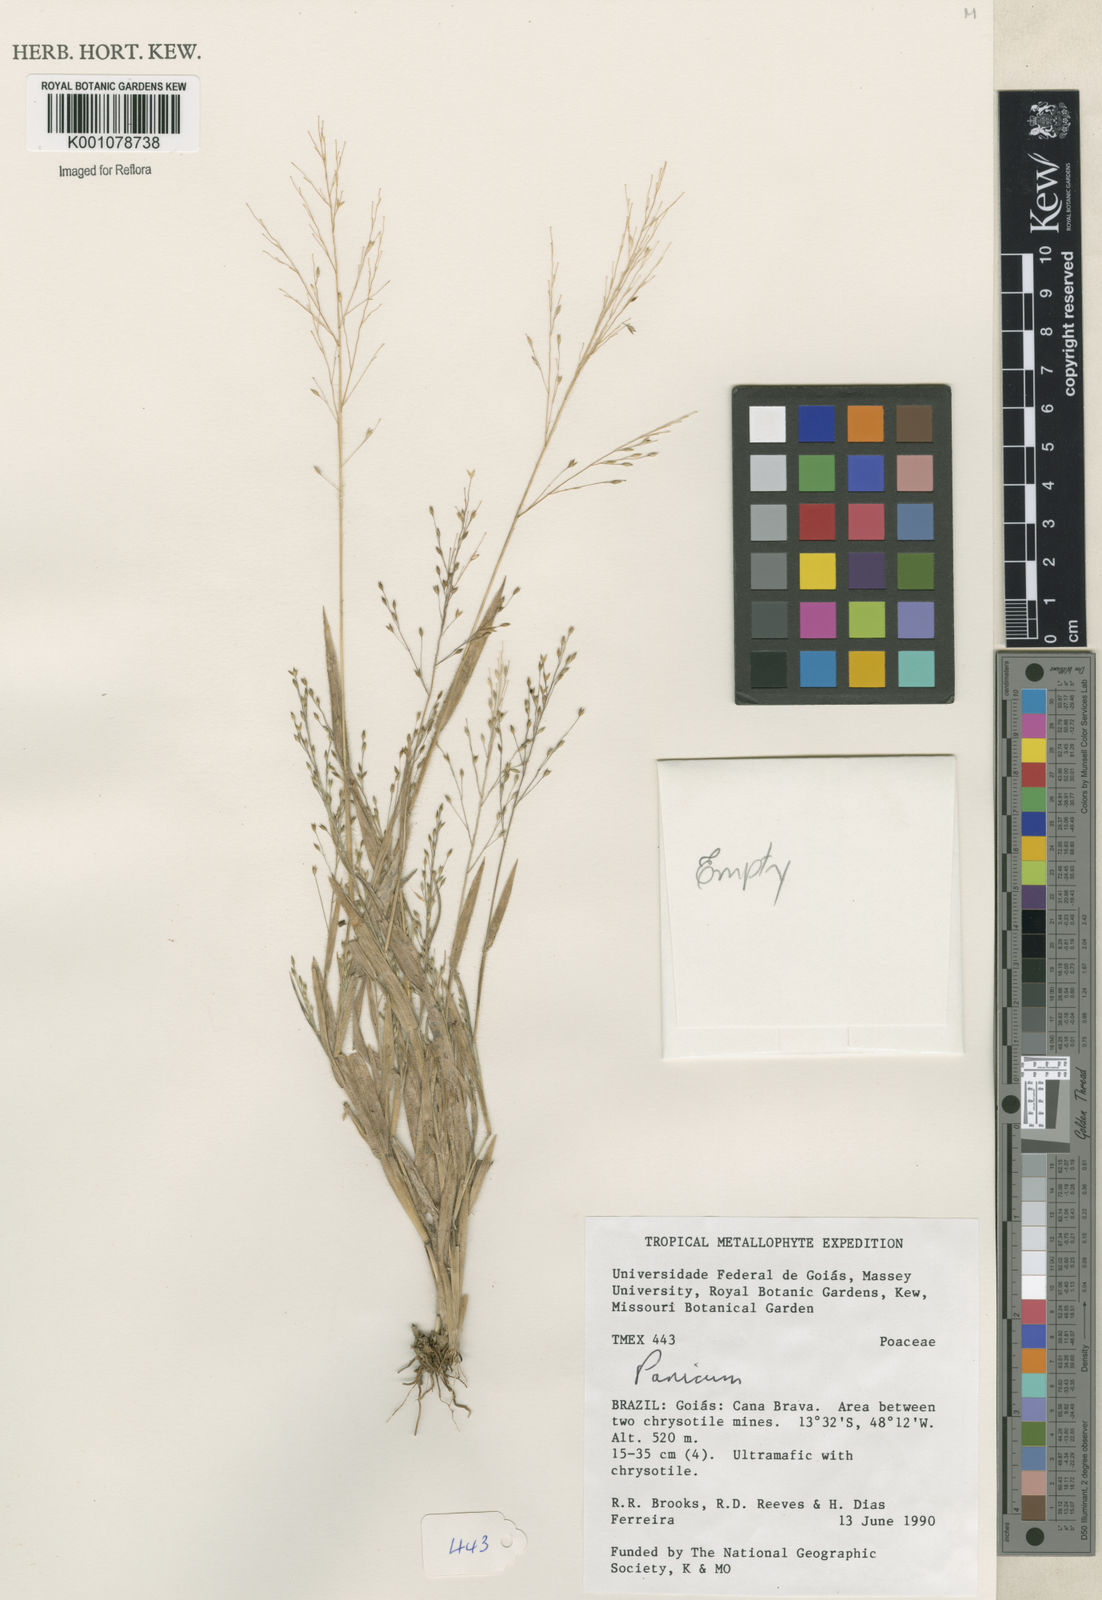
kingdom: Plantae
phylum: Tracheophyta
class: Liliopsida
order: Poales
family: Poaceae
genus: Panicum
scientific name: Panicum
